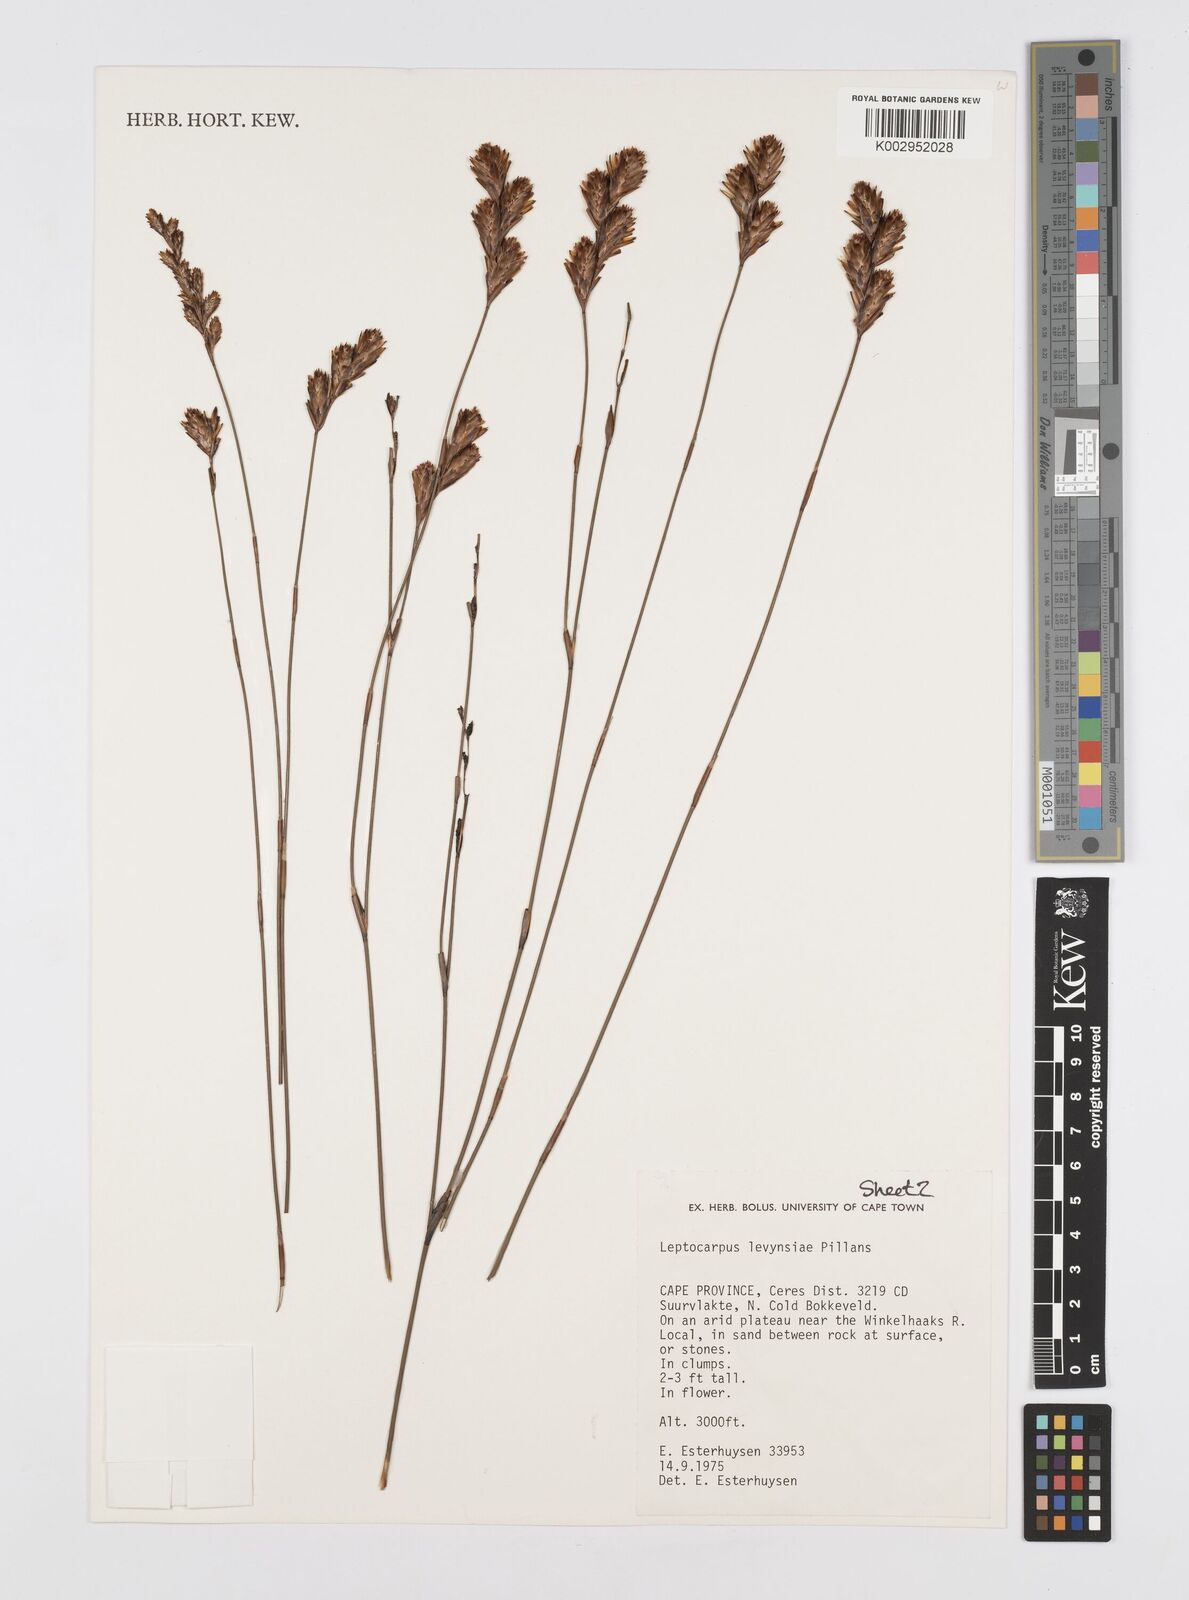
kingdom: Plantae
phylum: Tracheophyta
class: Liliopsida
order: Poales
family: Restionaceae
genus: Restio
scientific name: Restio levynsiae
